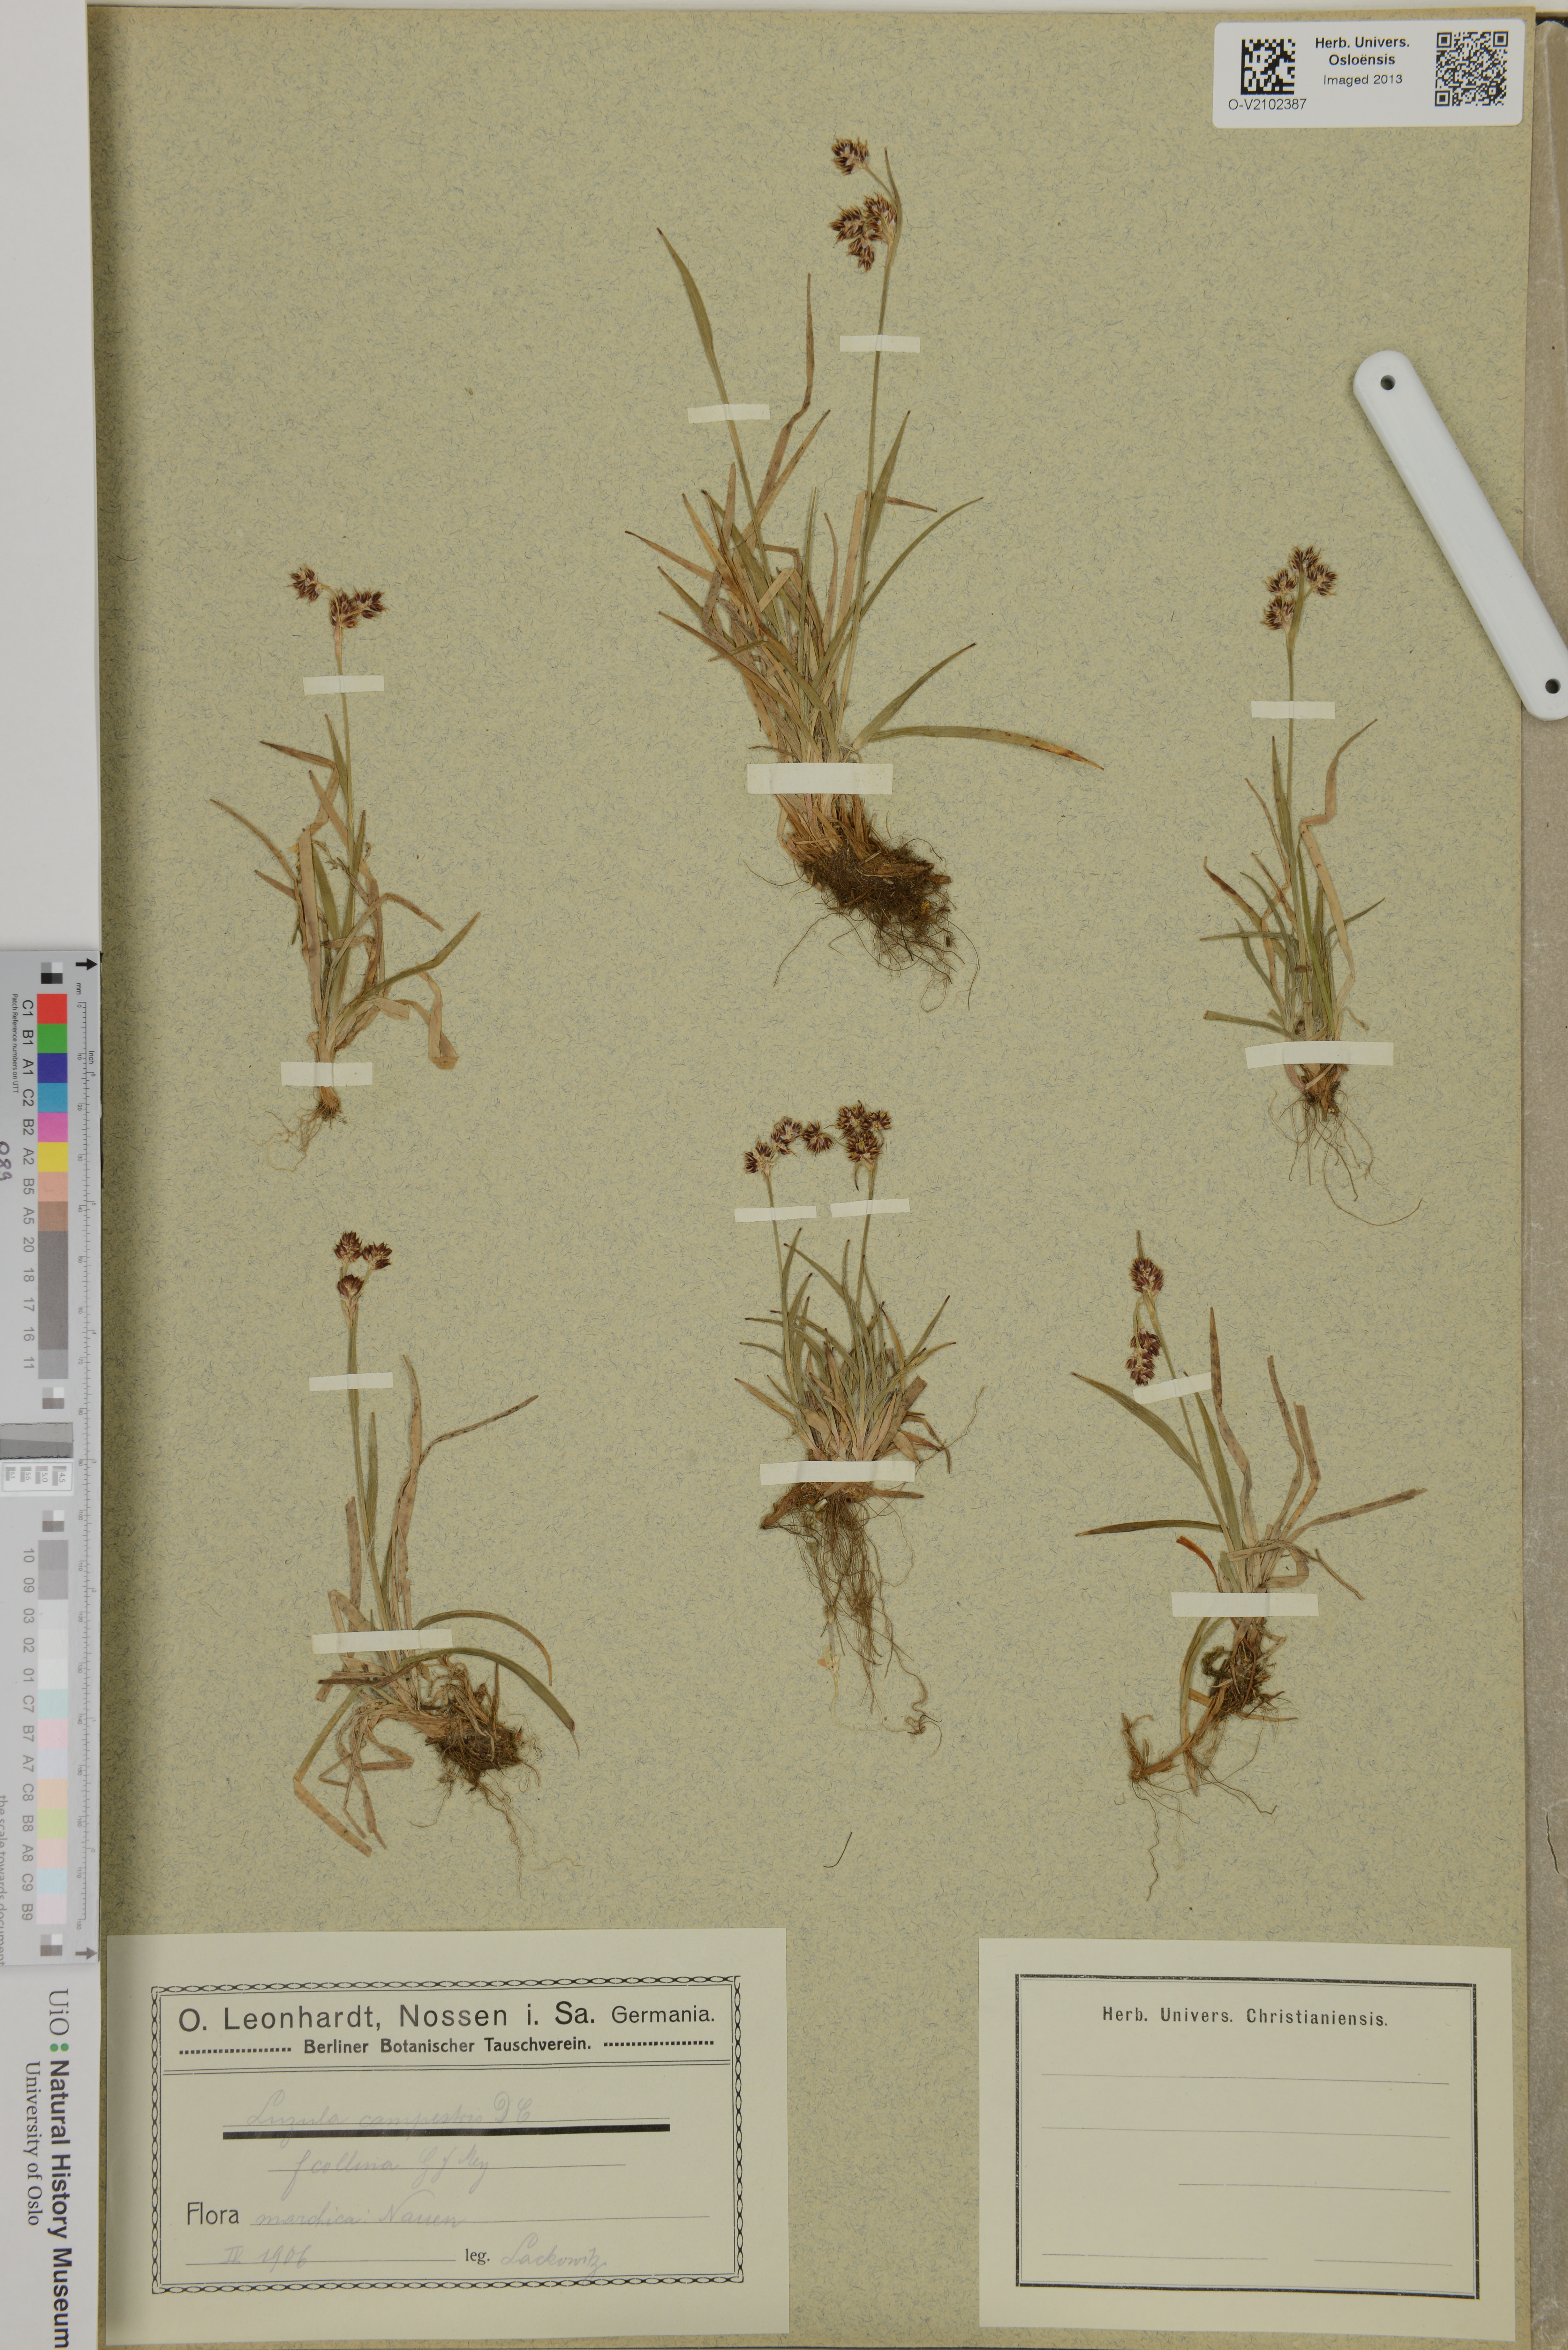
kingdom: Plantae
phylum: Tracheophyta
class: Liliopsida
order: Poales
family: Juncaceae
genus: Luzula
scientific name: Luzula campestris
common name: Field wood-rush
